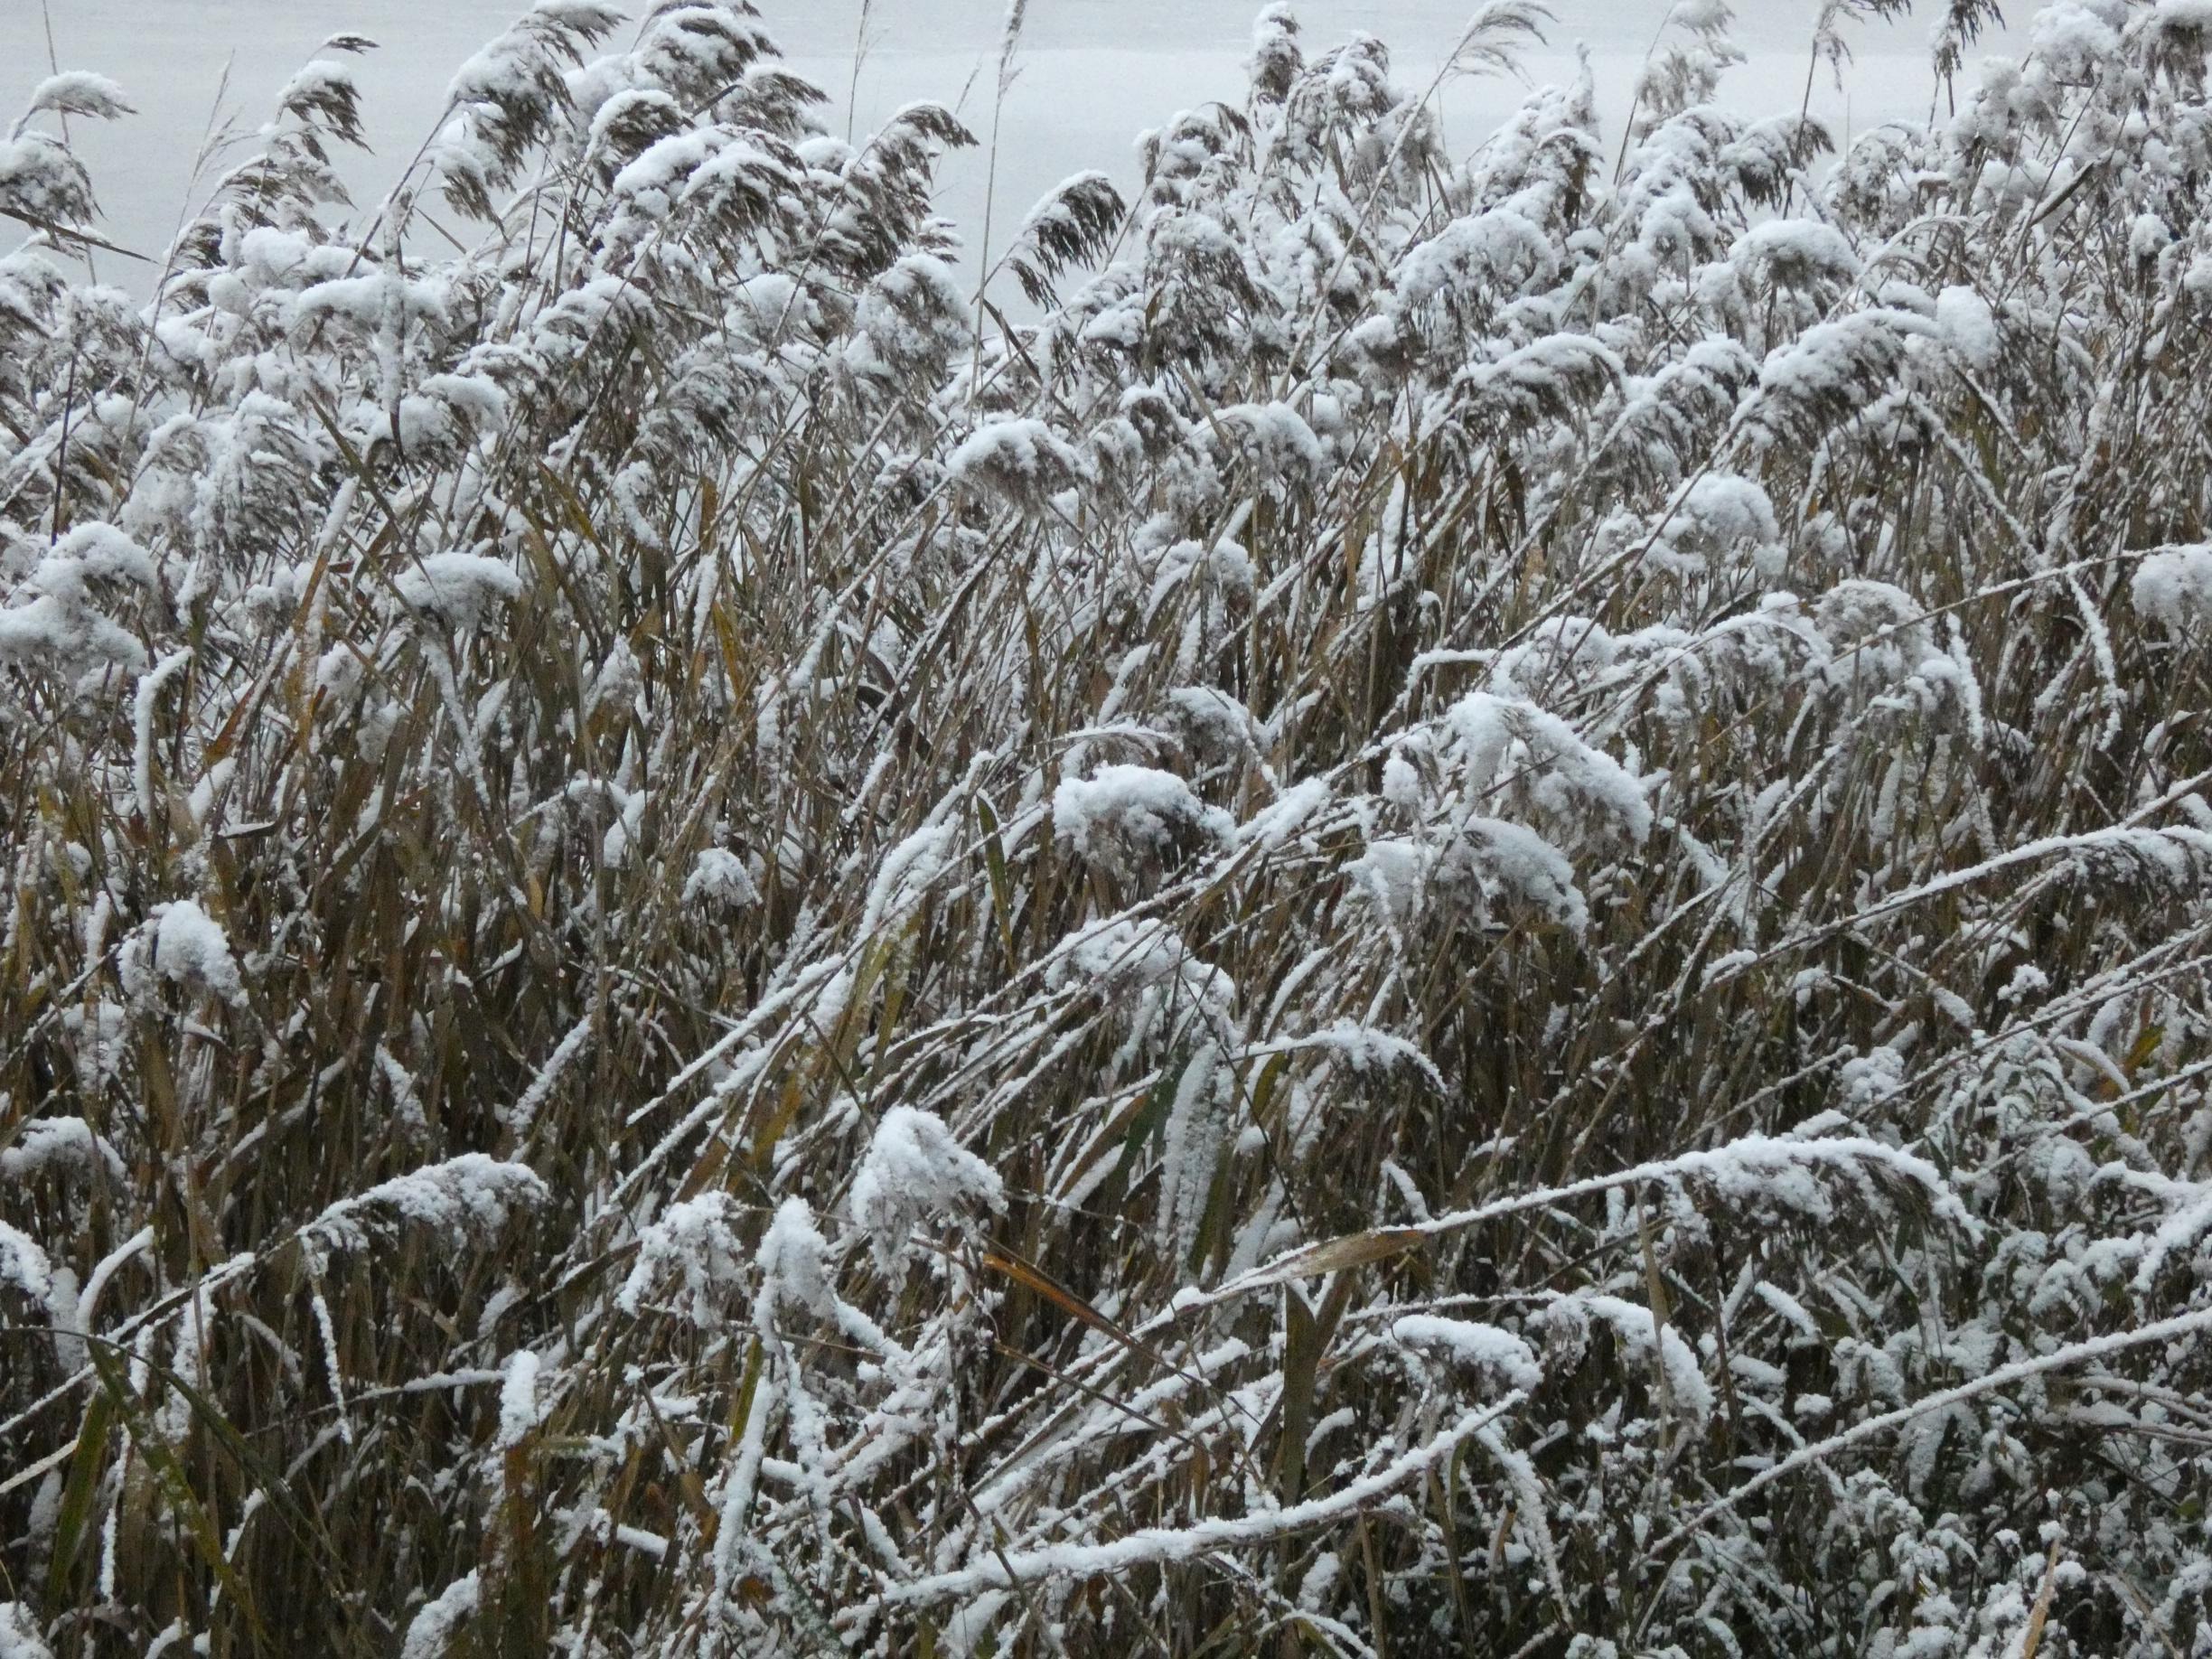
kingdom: Plantae
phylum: Tracheophyta
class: Liliopsida
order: Poales
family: Poaceae
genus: Phragmites
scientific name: Phragmites australis
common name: Tagrør
